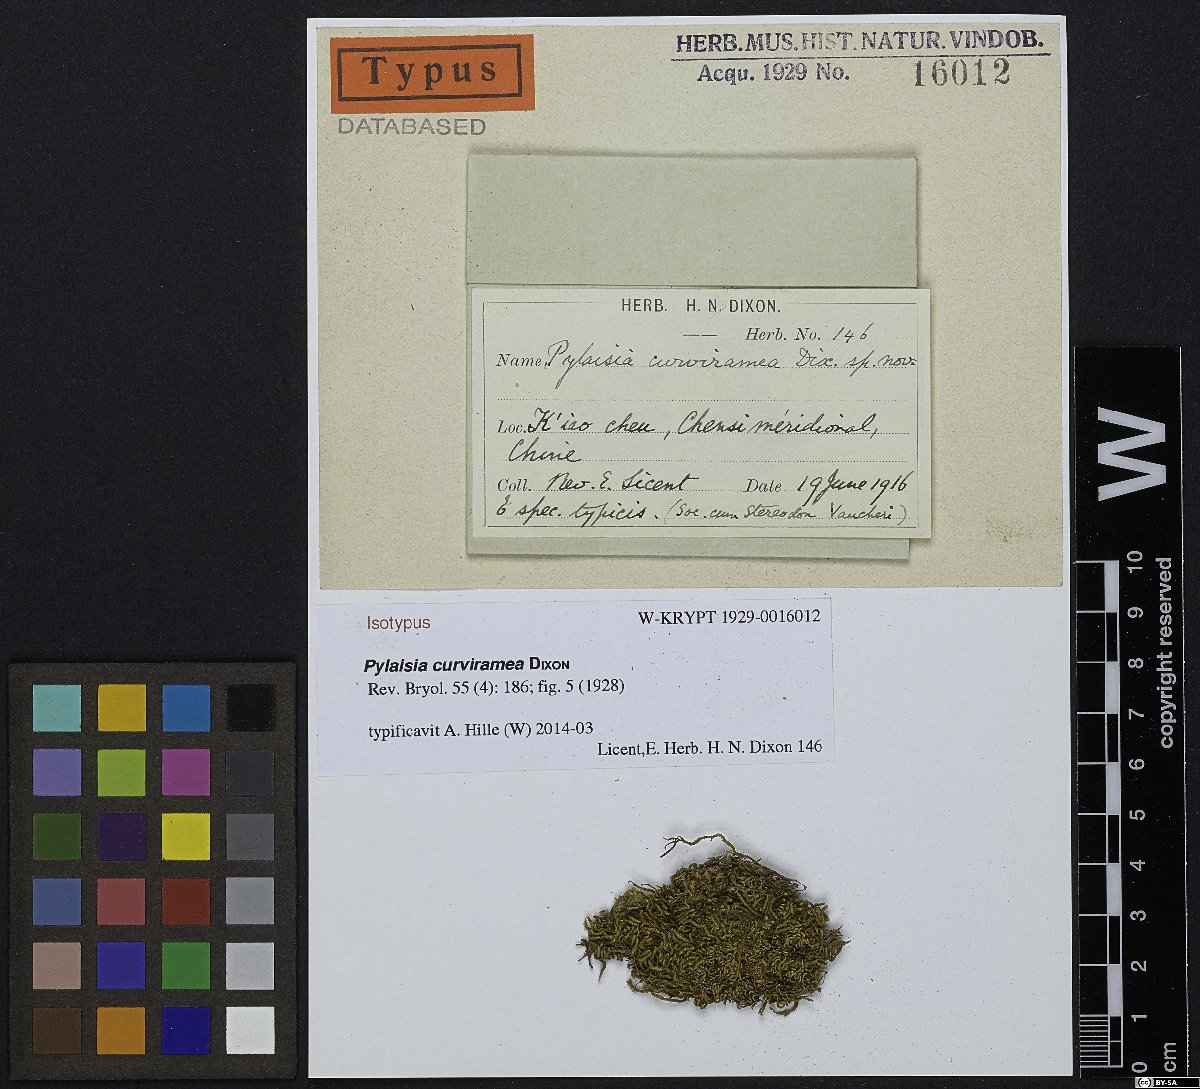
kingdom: Plantae
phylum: Bryophyta
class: Bryopsida
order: Hypnales
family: Pylaisiaceae
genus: Pylaisia
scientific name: Pylaisia curviramea
